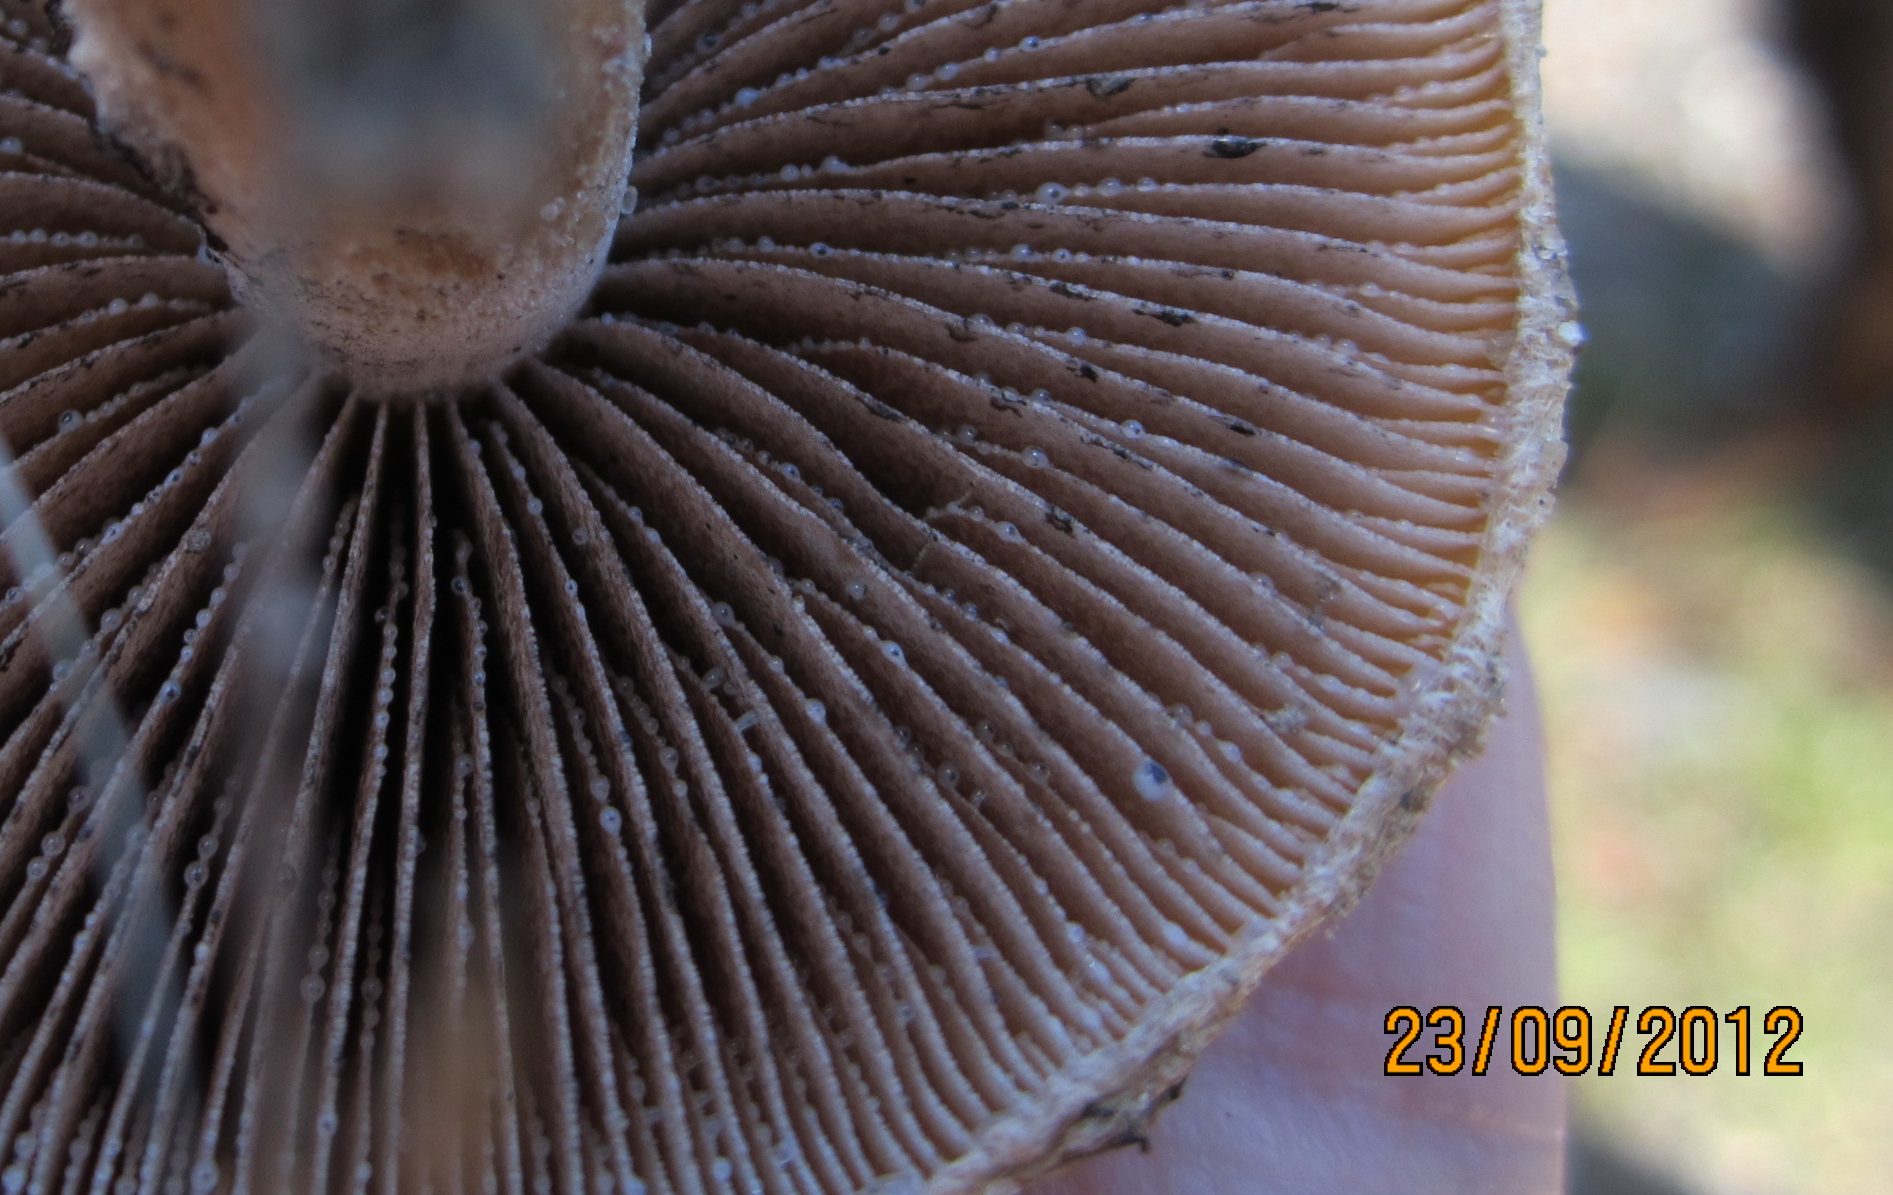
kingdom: Fungi
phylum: Basidiomycota
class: Agaricomycetes
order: Agaricales
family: Psathyrellaceae
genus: Lacrymaria
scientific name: Lacrymaria lacrymabunda
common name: grædende mørkhat
